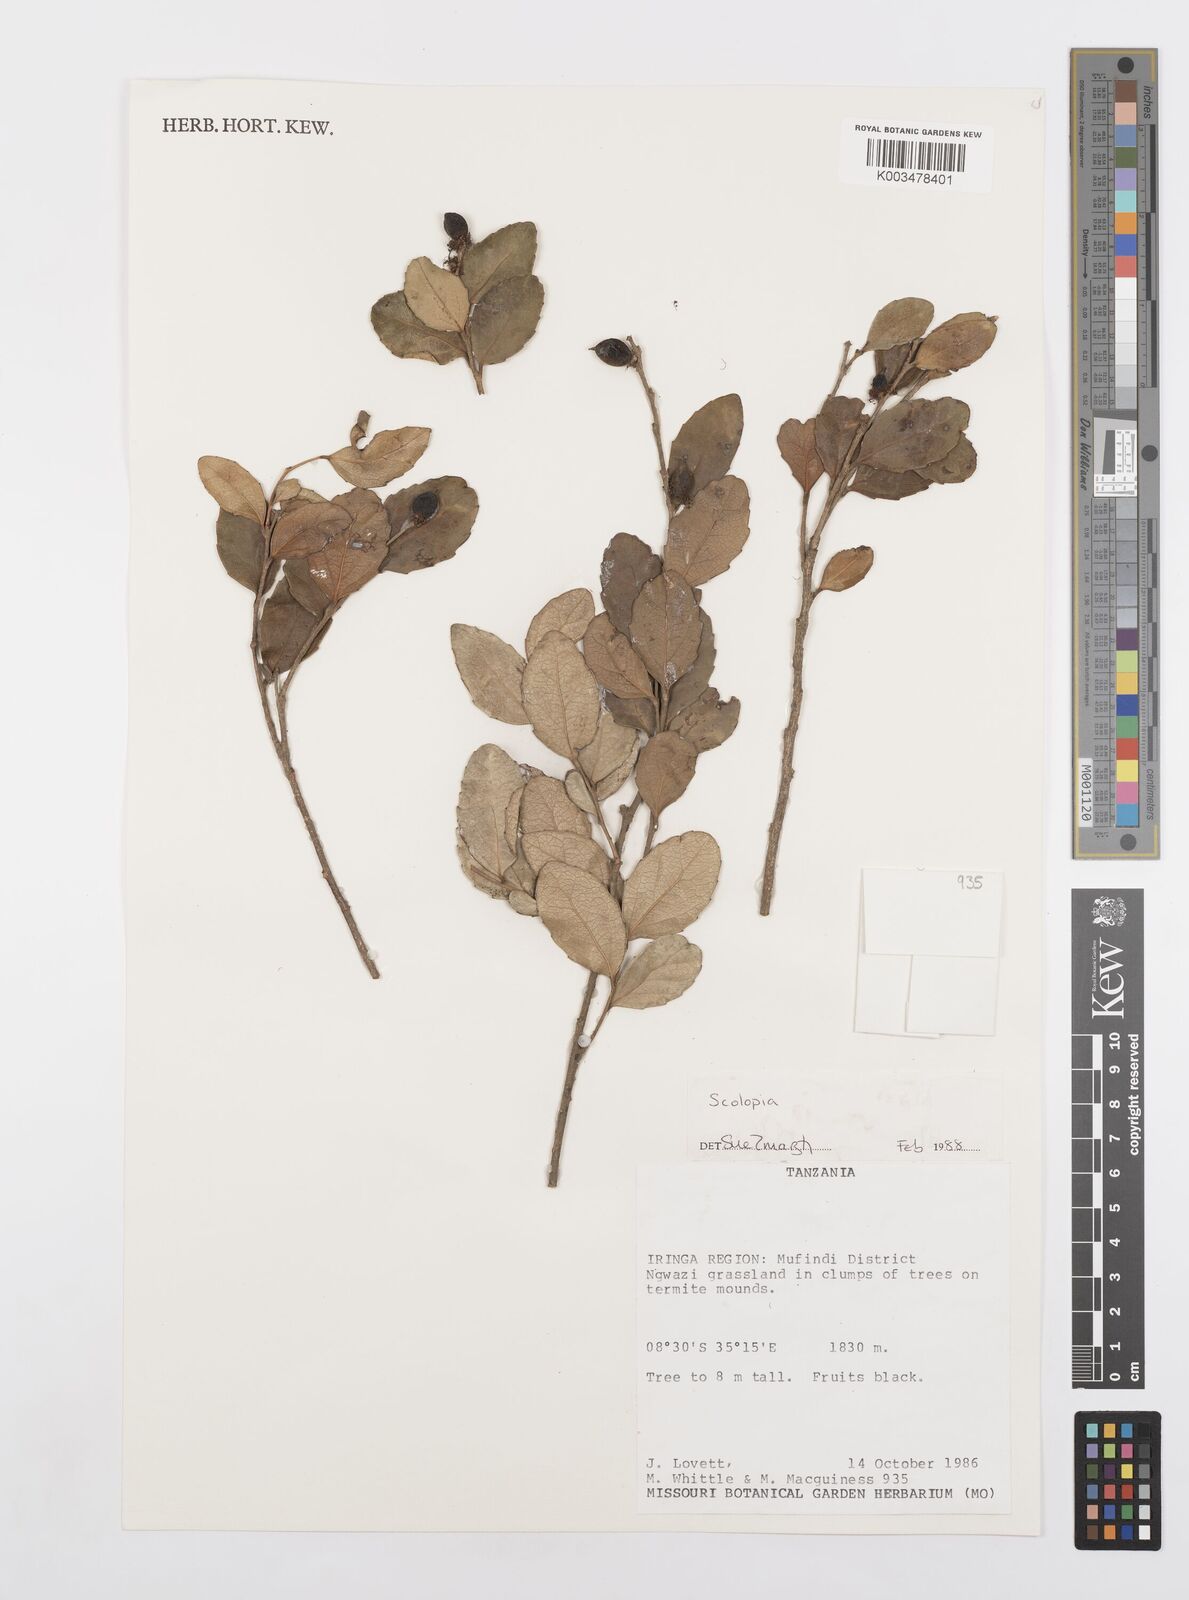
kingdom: Plantae
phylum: Tracheophyta
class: Magnoliopsida
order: Malpighiales
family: Salicaceae
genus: Scolopia
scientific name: Scolopia
